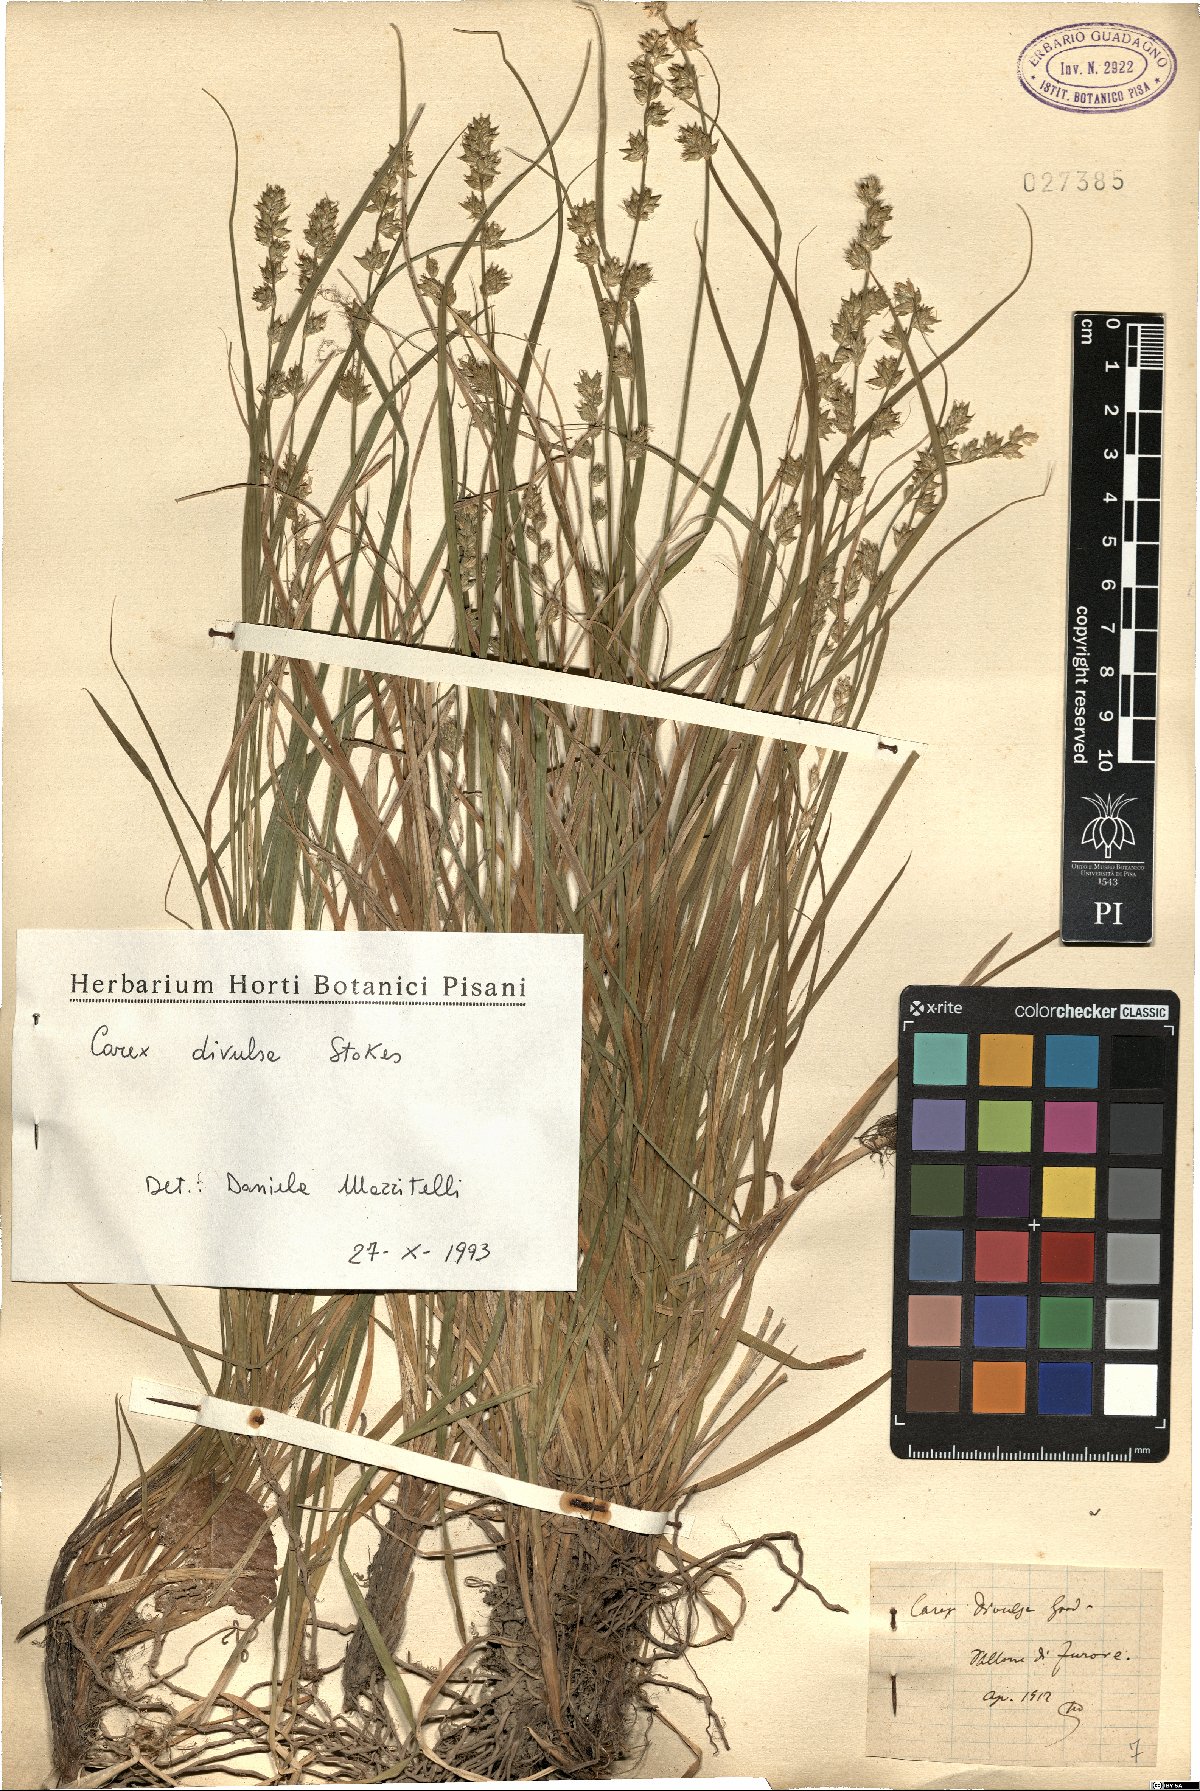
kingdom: Plantae
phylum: Tracheophyta
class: Liliopsida
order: Poales
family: Cyperaceae
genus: Carex
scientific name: Carex divulsa
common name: Grassland sedge
